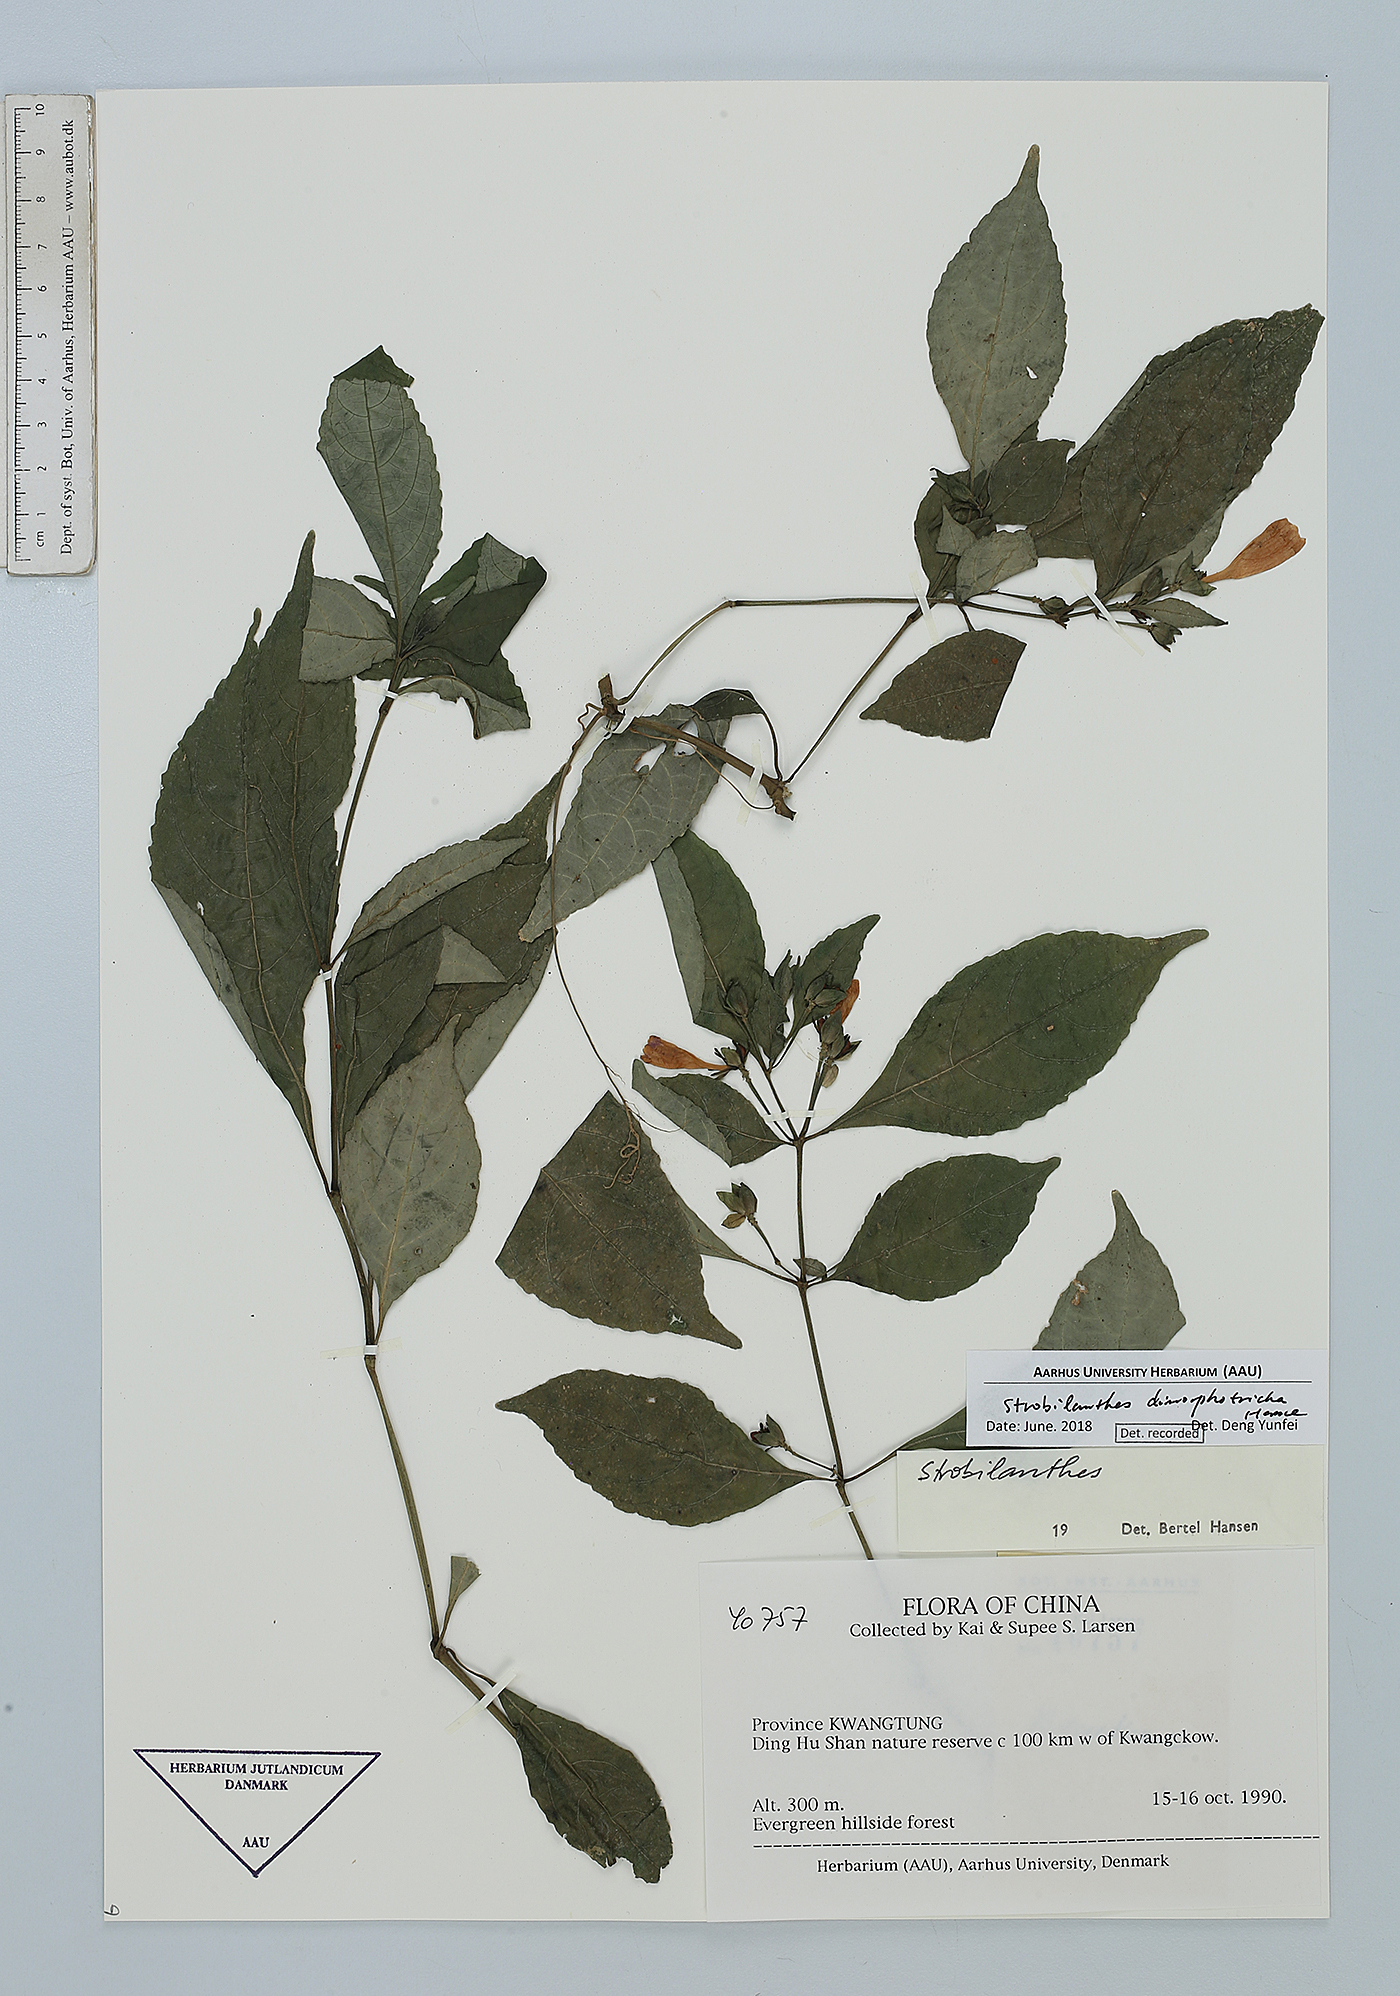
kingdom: Plantae
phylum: Tracheophyta
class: Magnoliopsida
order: Lamiales
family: Acanthaceae
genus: Strobilanthes
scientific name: Strobilanthes dimorphotricha
